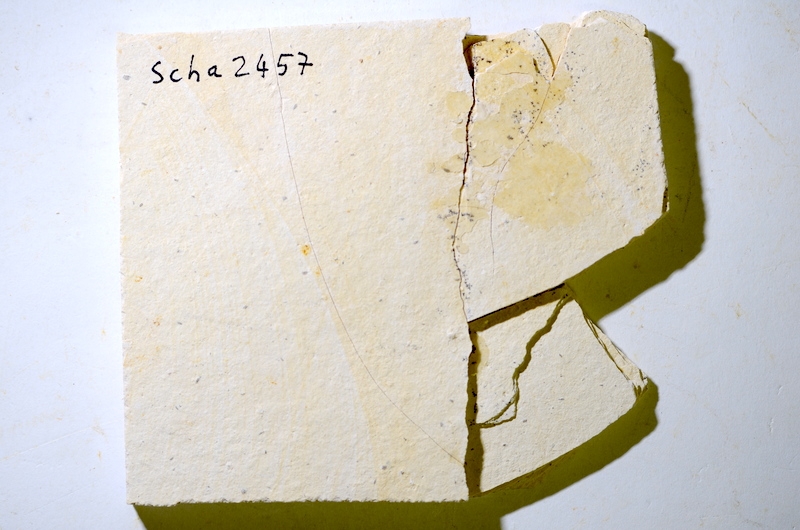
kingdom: Animalia
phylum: Chordata
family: Ascalaboidae
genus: Tharsis
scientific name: Tharsis dubius
